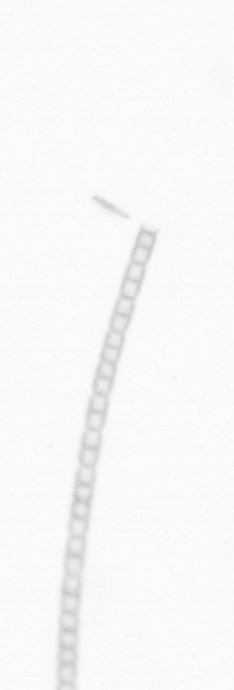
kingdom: Chromista
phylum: Ochrophyta
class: Bacillariophyceae
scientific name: Bacillariophyceae
